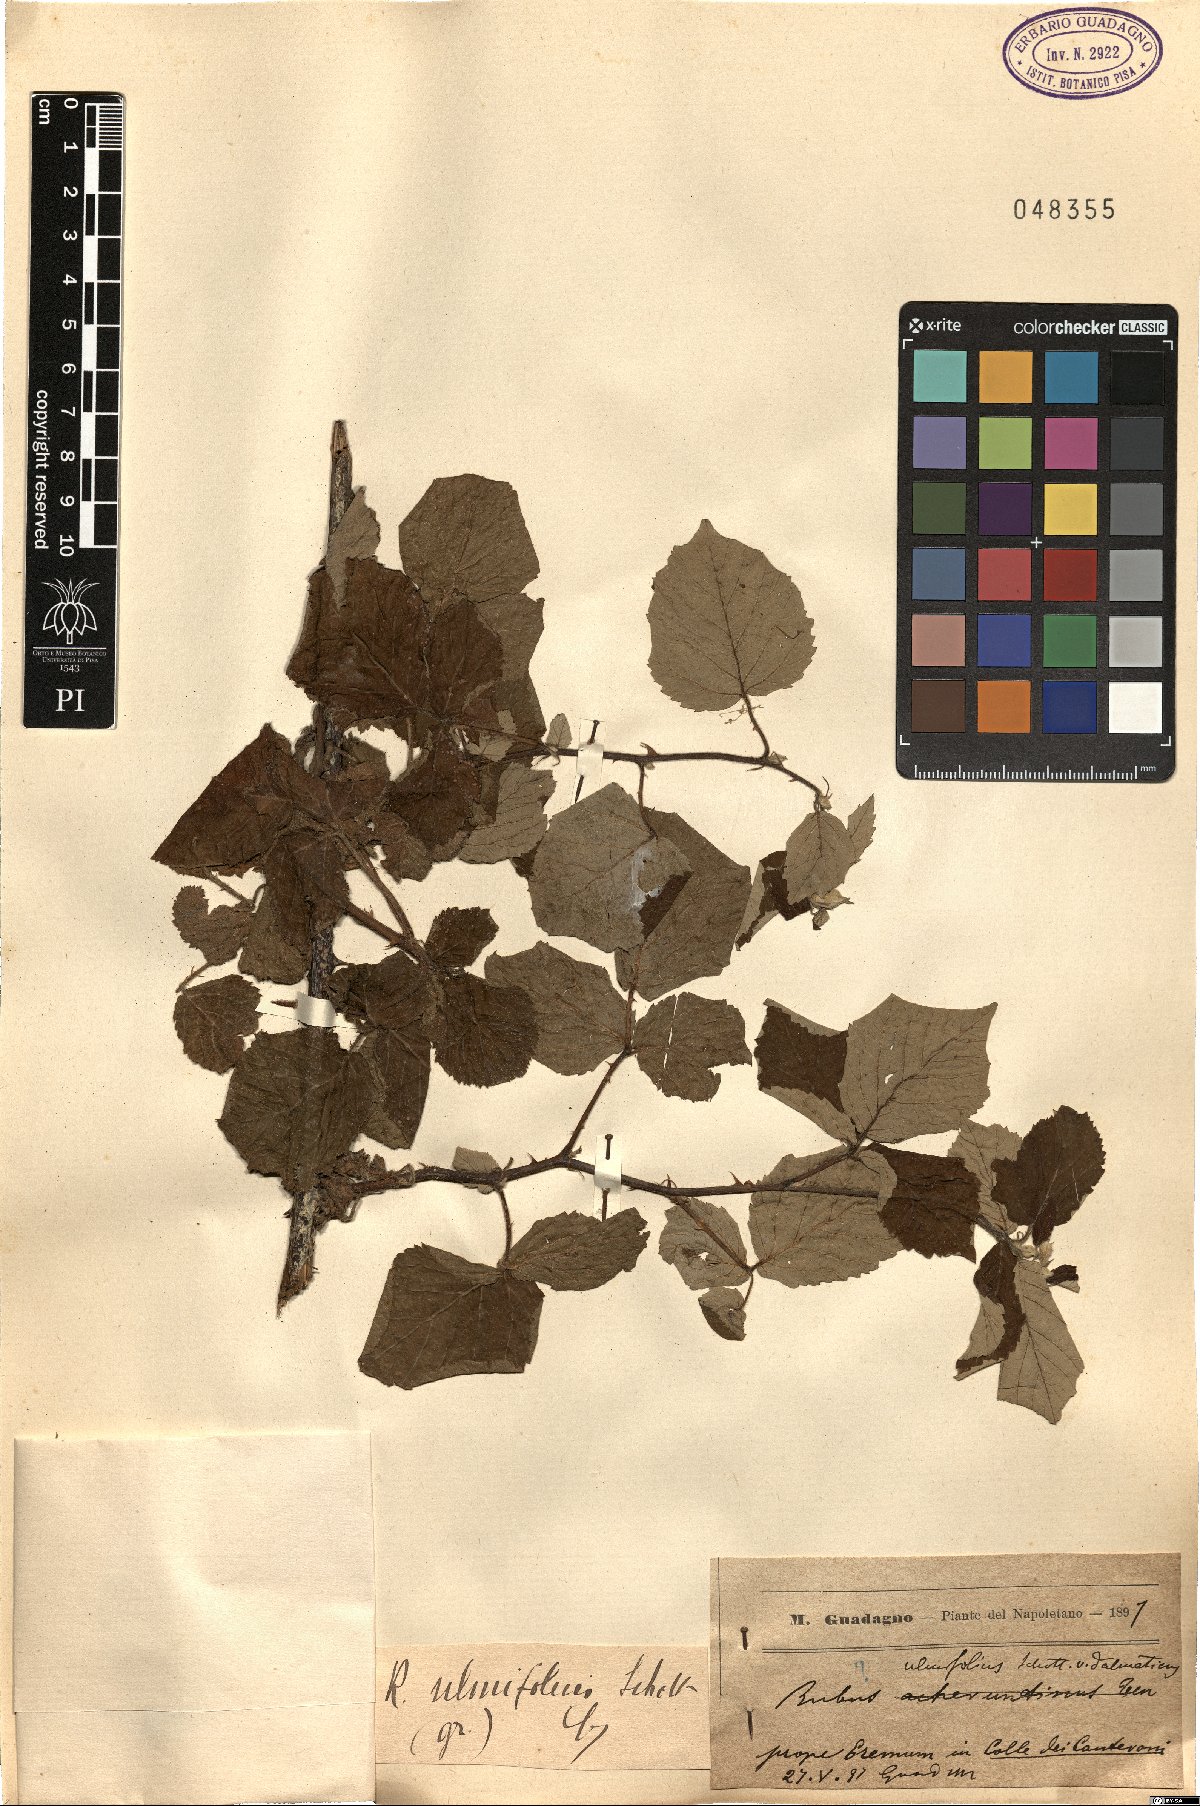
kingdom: Plantae
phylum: Tracheophyta
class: Magnoliopsida
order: Rosales
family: Rosaceae
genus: Rubus
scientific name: Rubus ulmifolius
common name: Elmleaf blackberry
